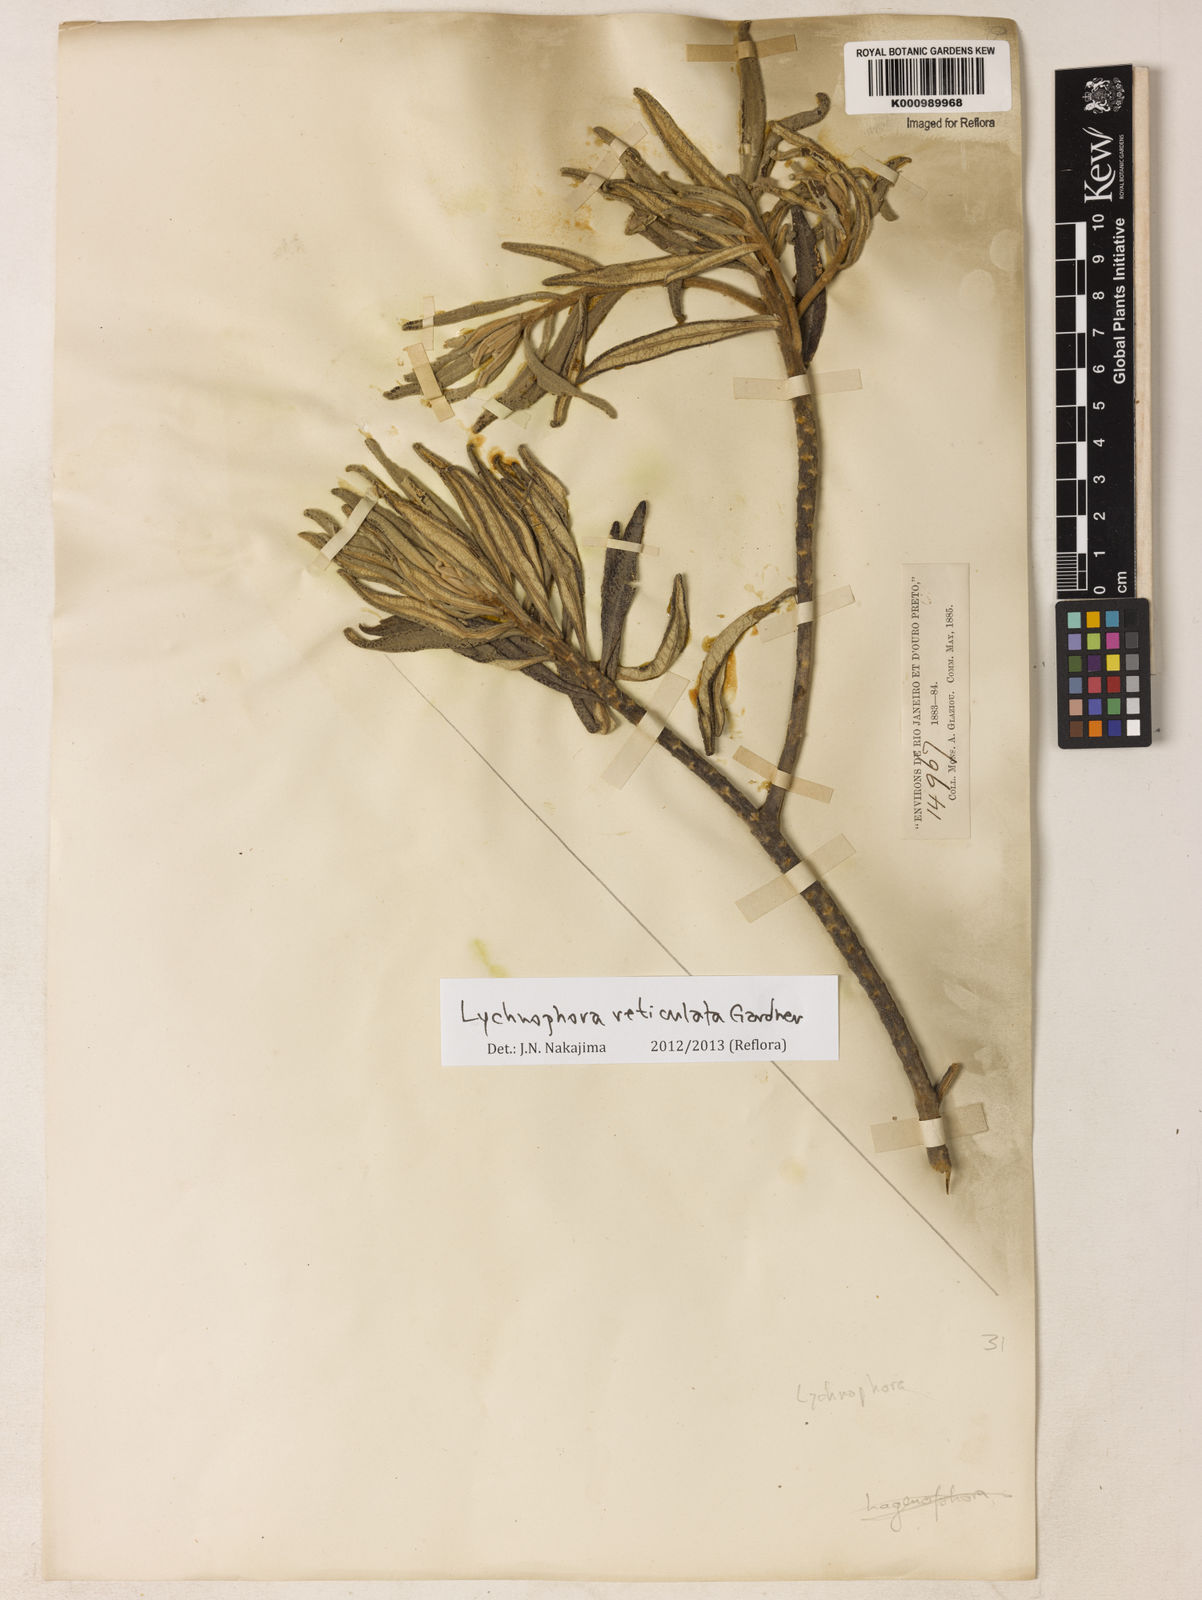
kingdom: Plantae
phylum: Tracheophyta
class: Magnoliopsida
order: Asterales
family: Asteraceae
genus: Eremanthus
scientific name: Eremanthus reticulatus
